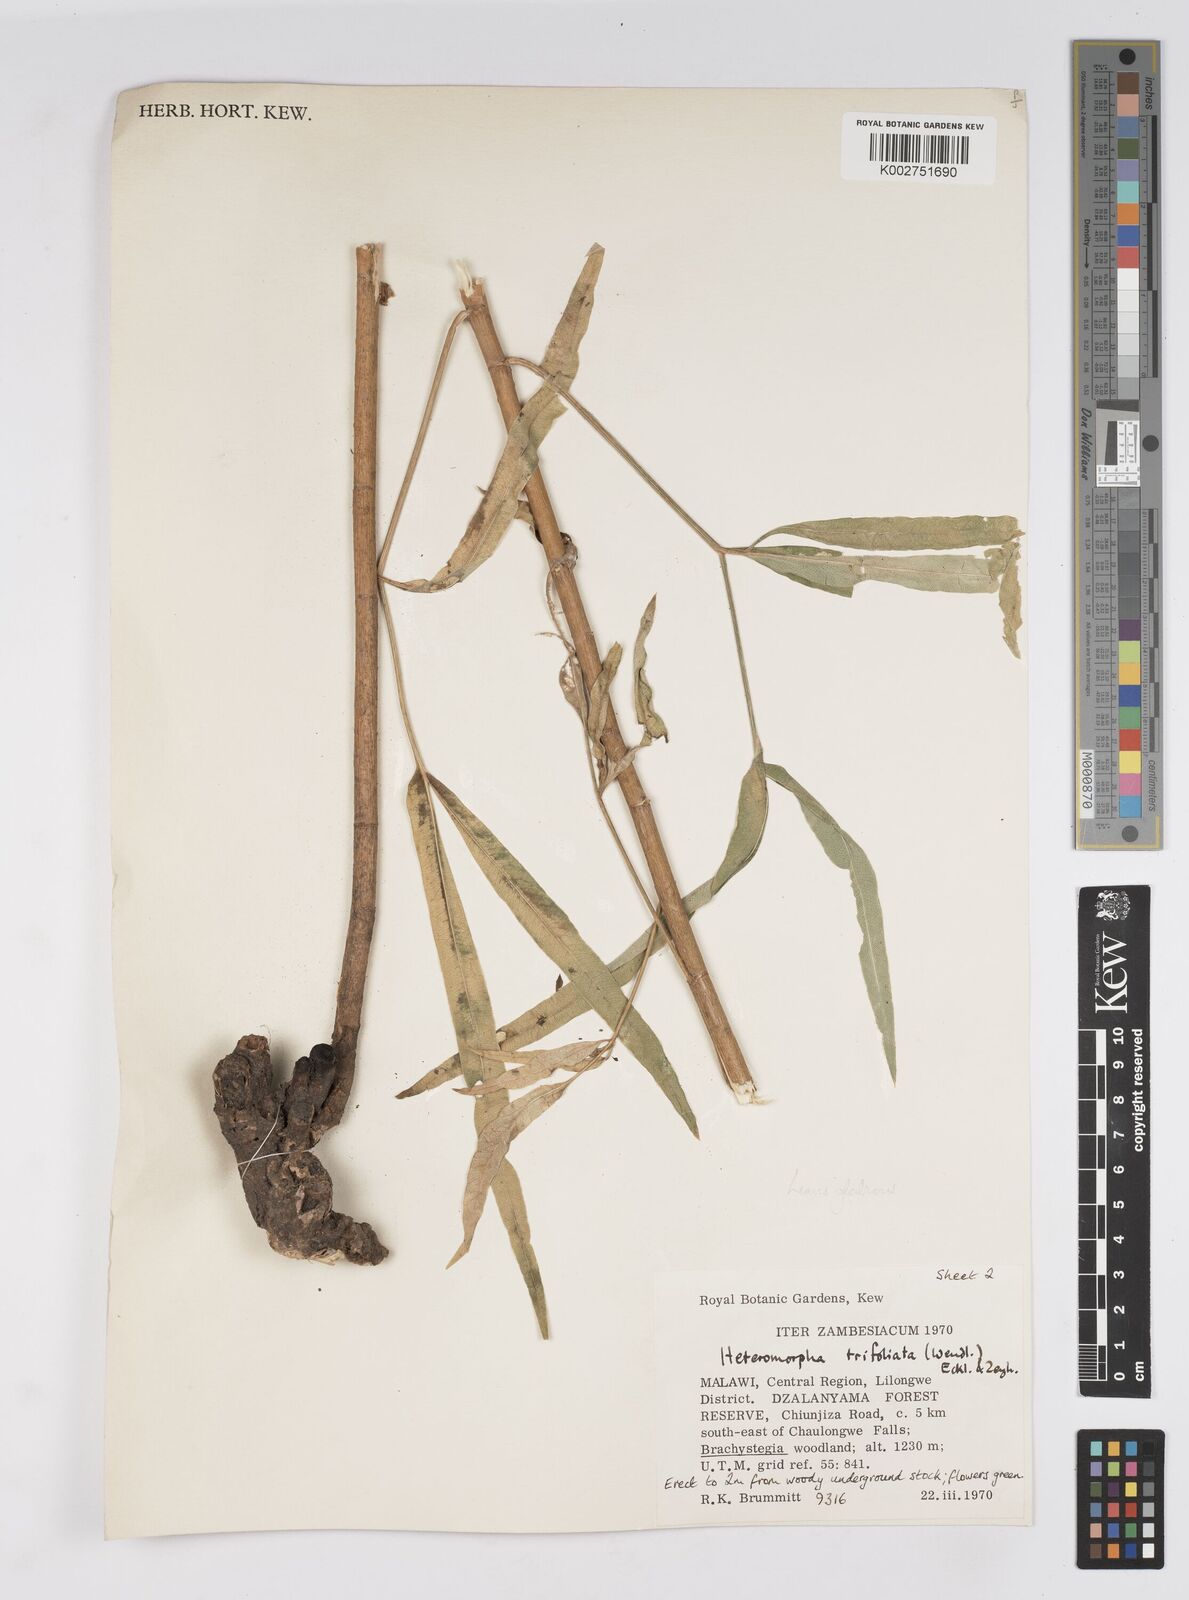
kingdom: Plantae
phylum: Tracheophyta
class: Magnoliopsida
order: Apiales
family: Apiaceae
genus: Heteromorpha
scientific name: Heteromorpha stenophylla
